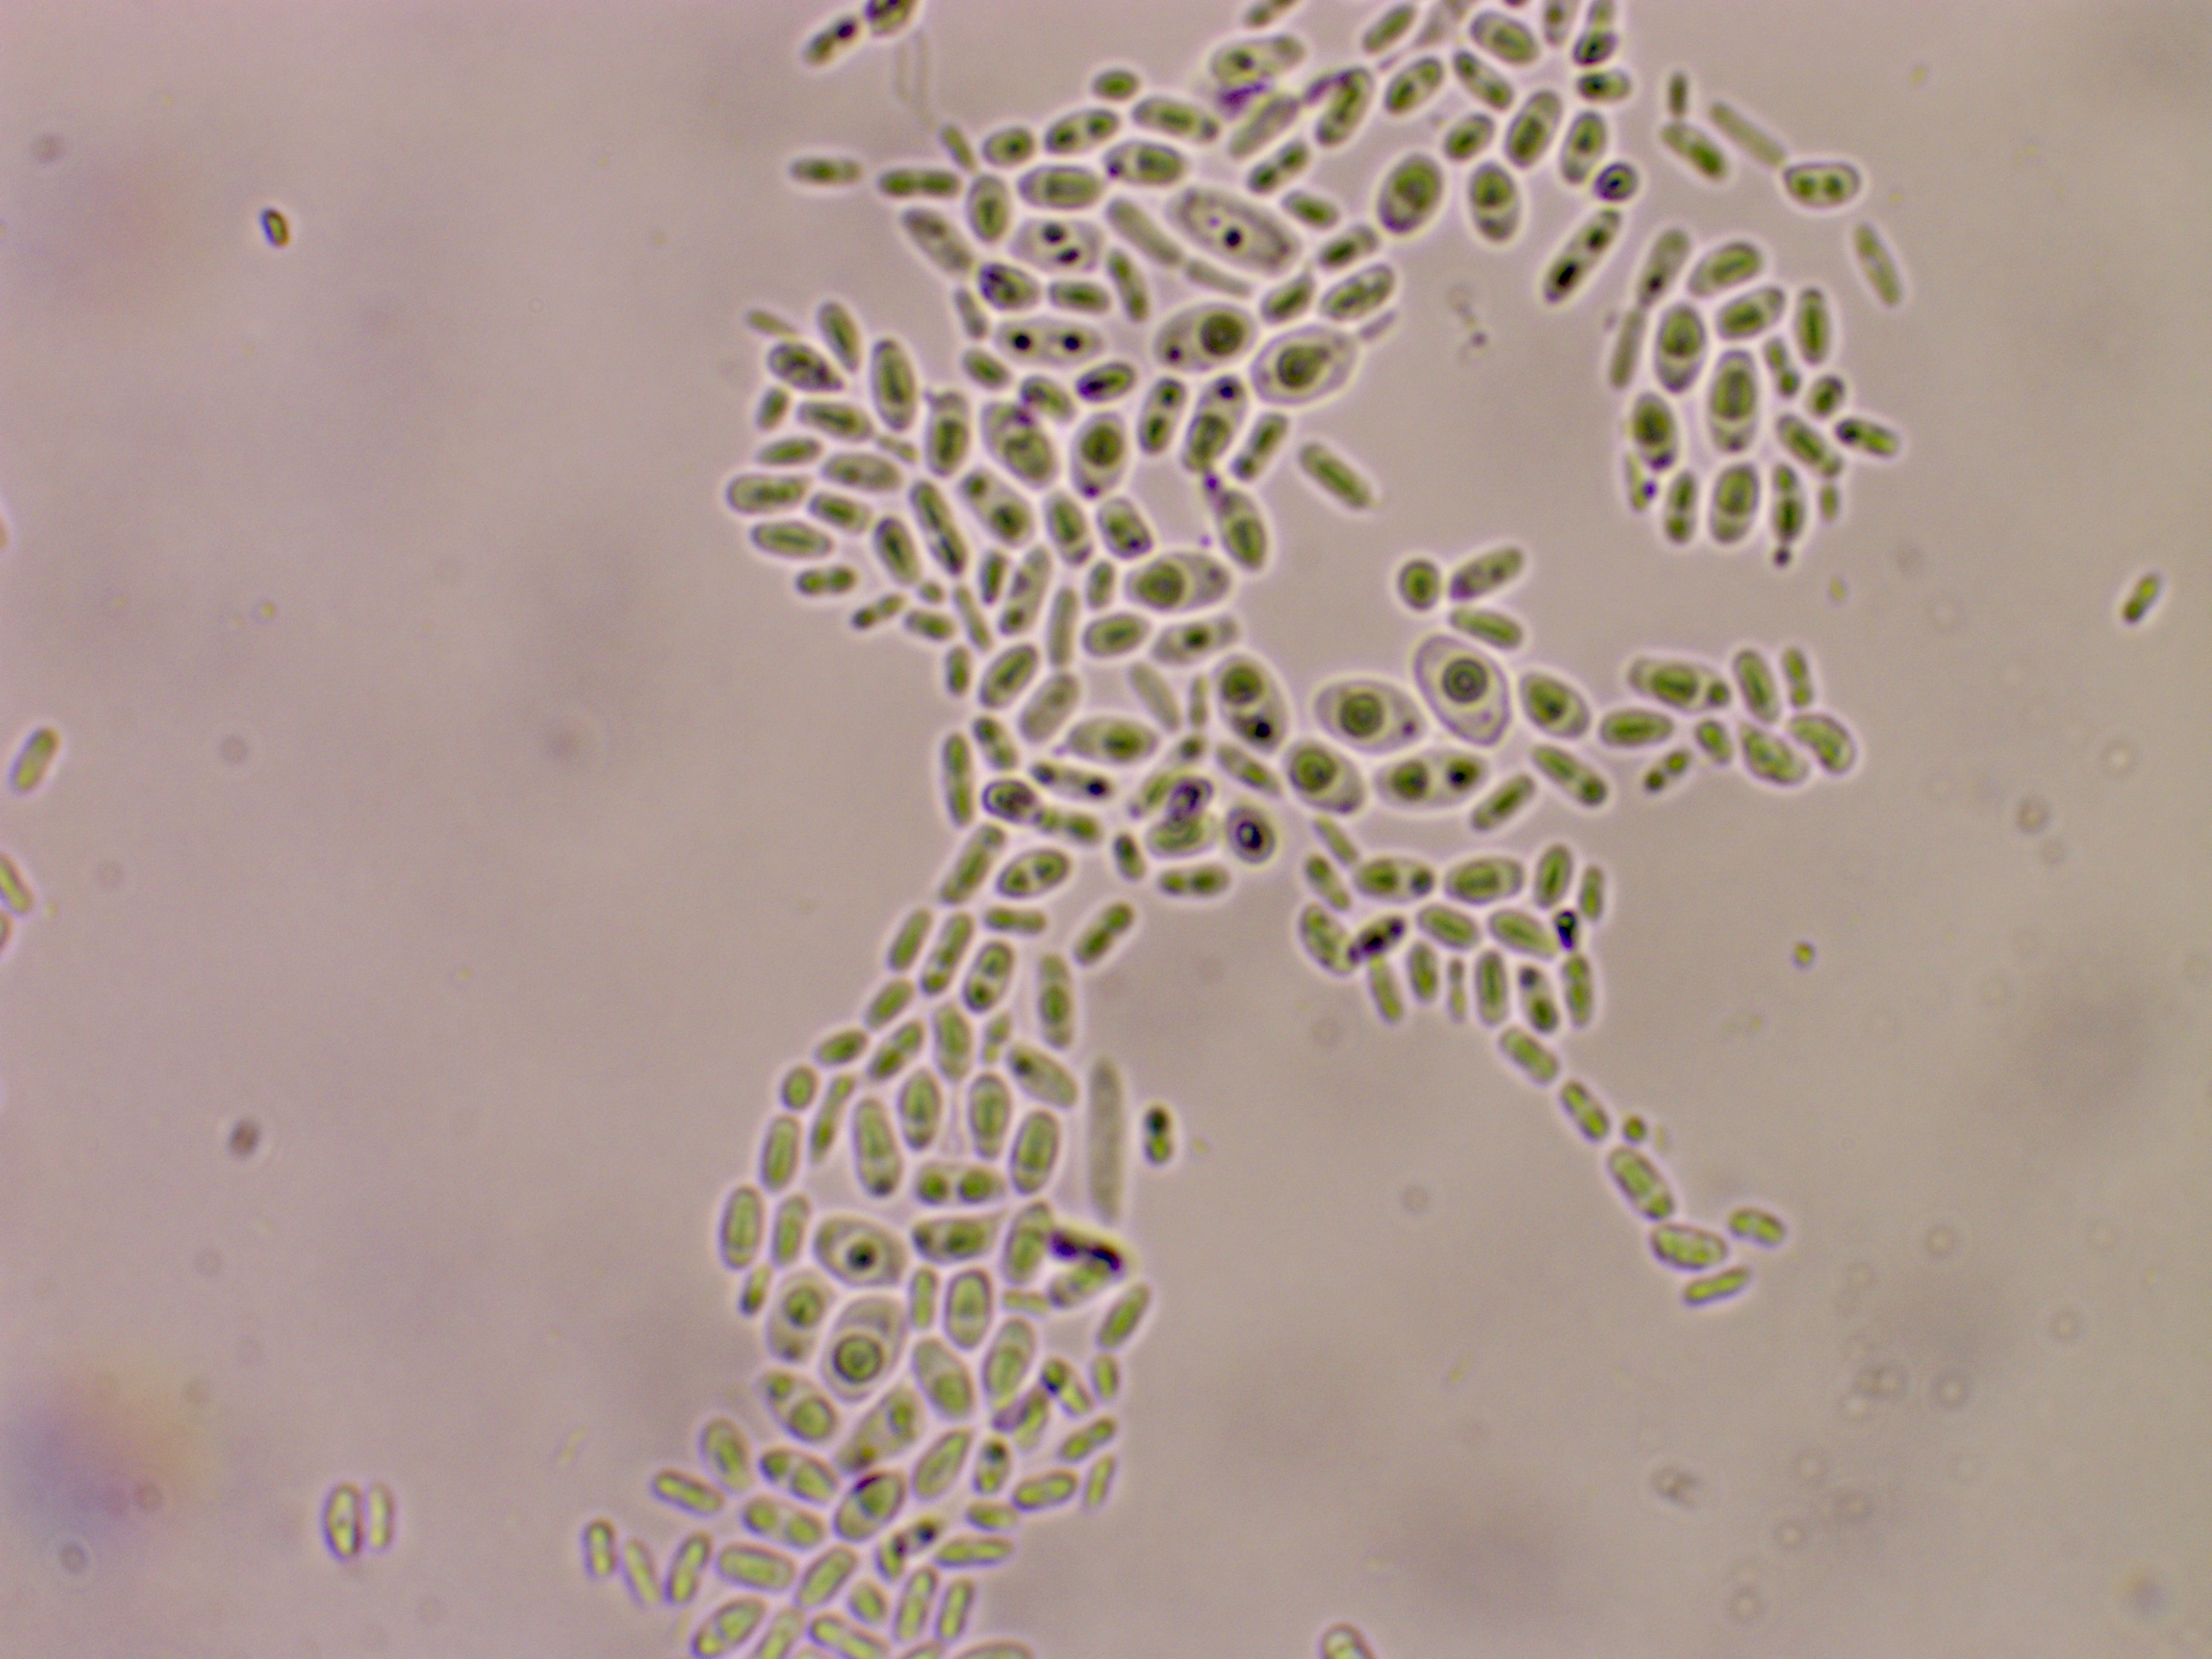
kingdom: Fungi
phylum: Basidiomycota
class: Agaricomycetes
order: Polyporales
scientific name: Polyporales
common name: poresvampordenen
